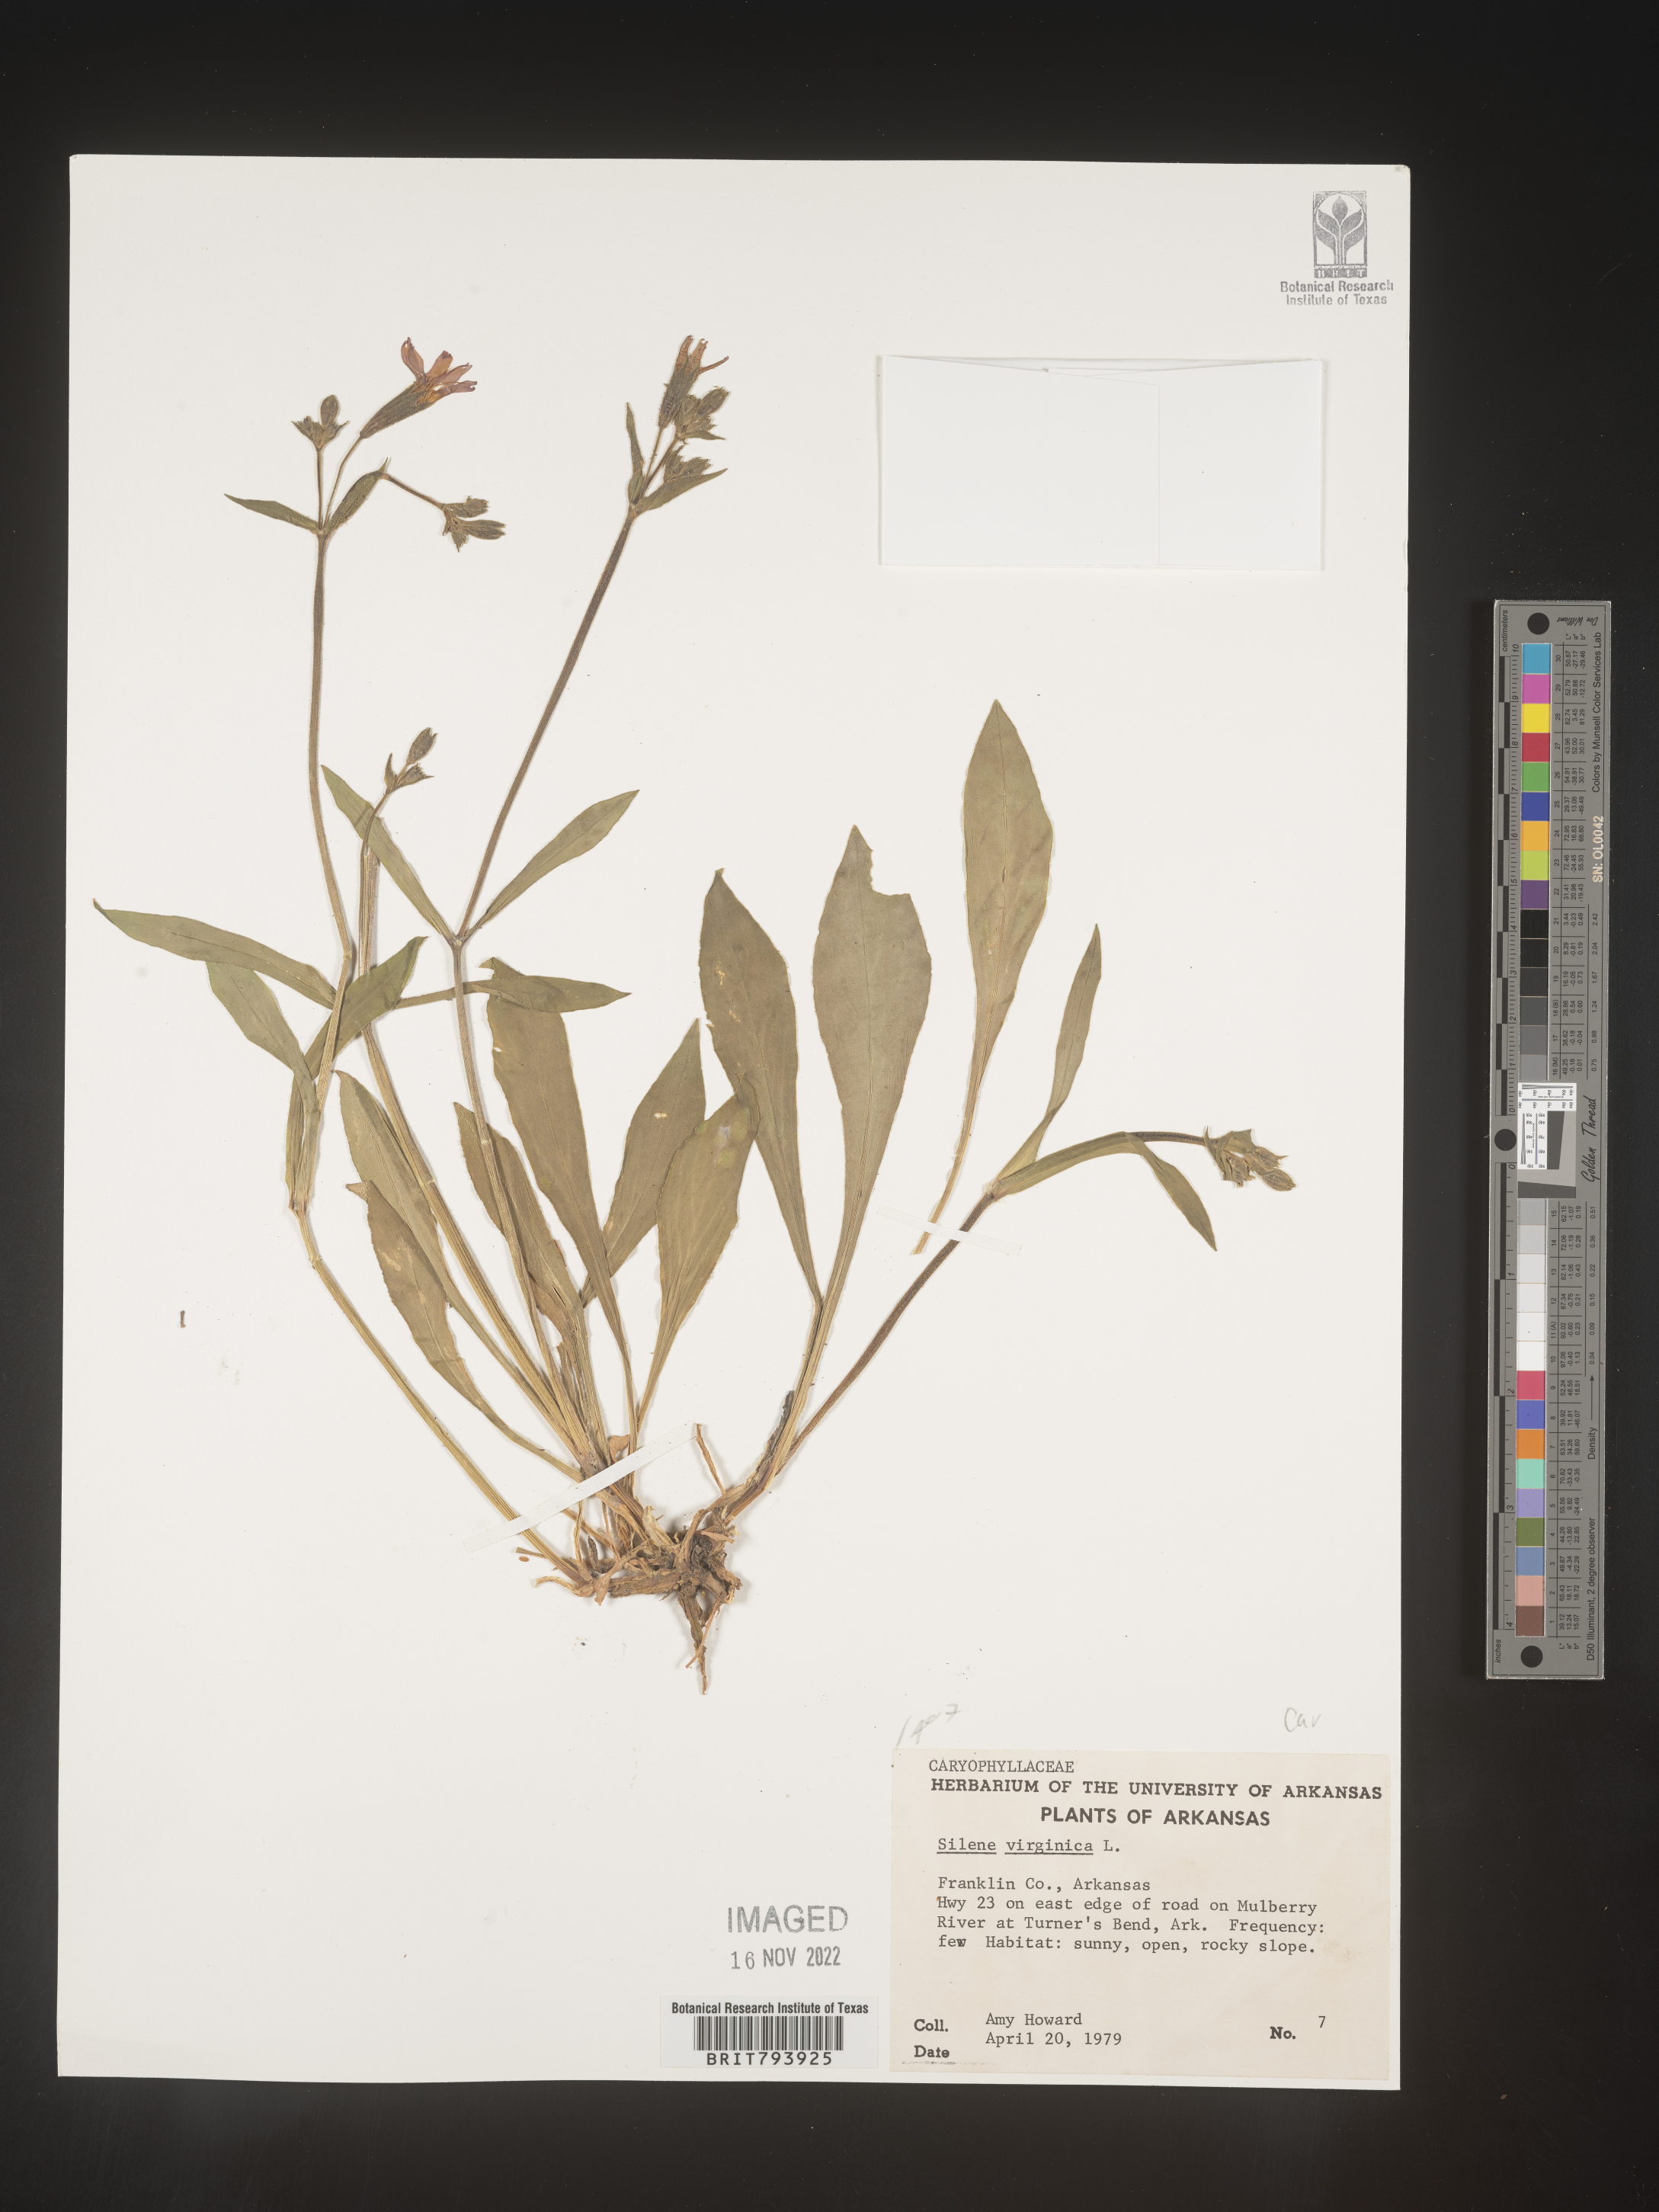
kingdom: Plantae
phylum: Tracheophyta
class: Magnoliopsida
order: Caryophyllales
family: Caryophyllaceae
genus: Silene
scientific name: Silene virginica
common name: Fire-pink
